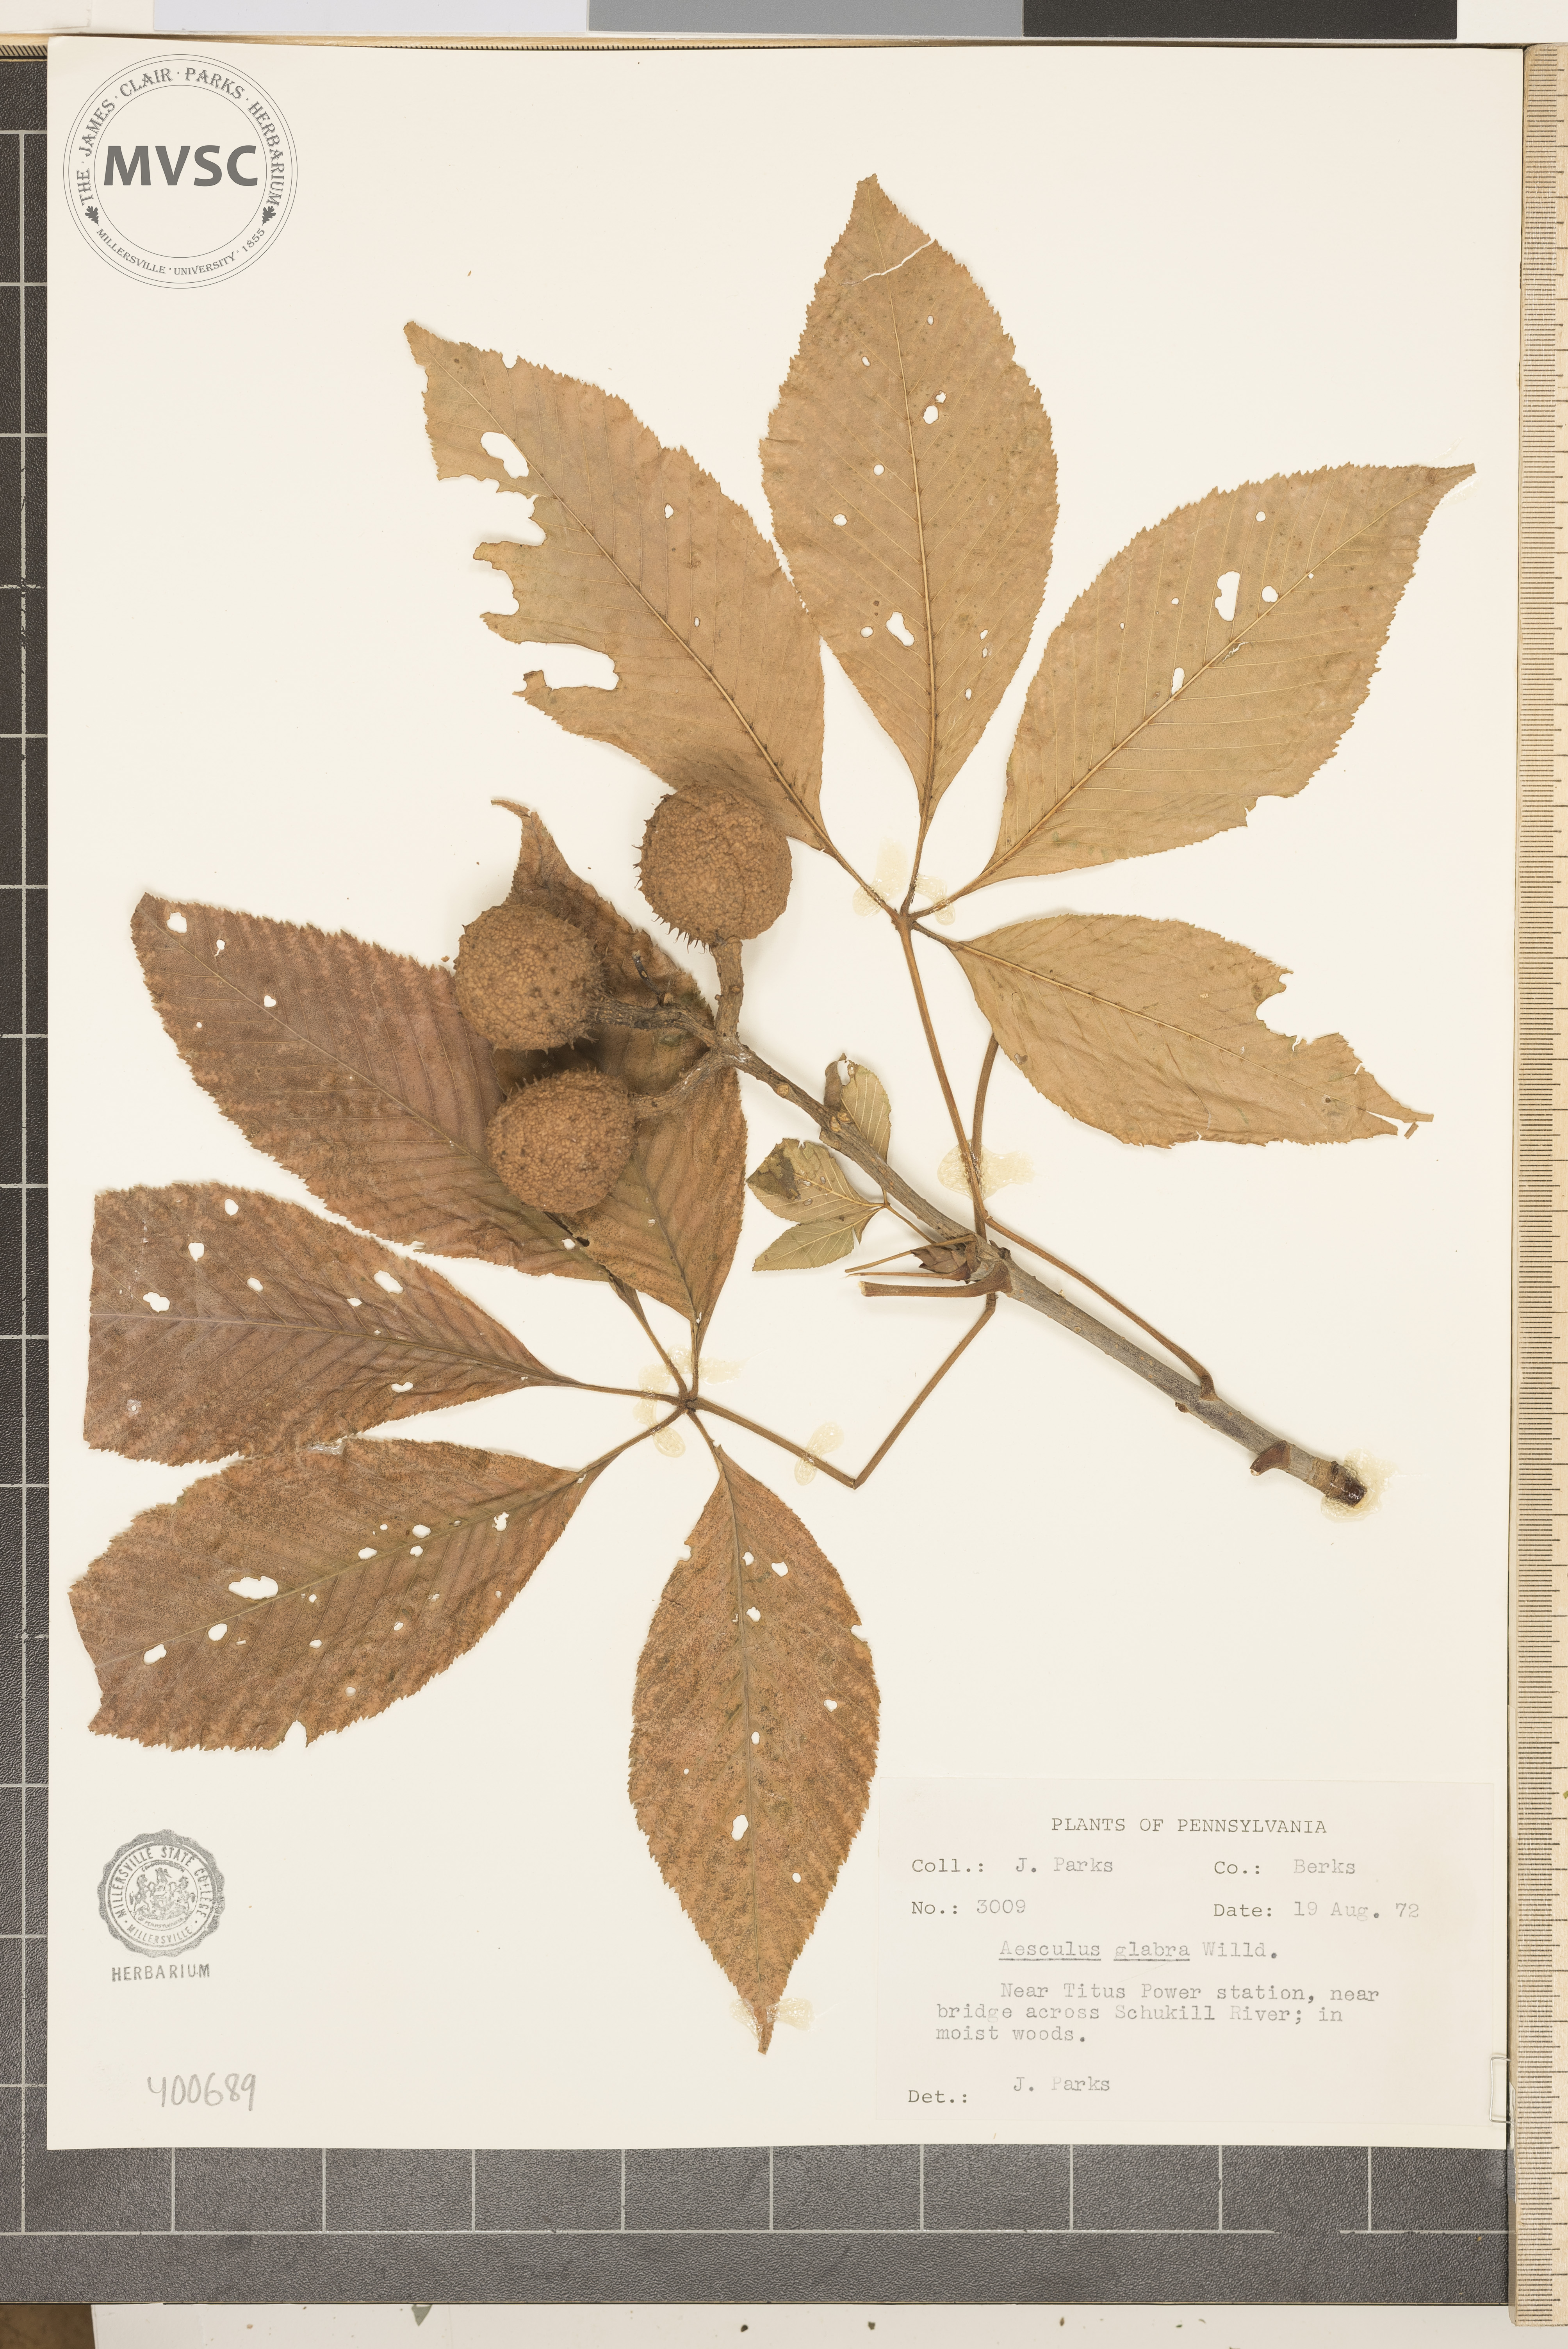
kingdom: Plantae
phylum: Tracheophyta
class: Magnoliopsida
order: Sapindales
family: Sapindaceae
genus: Aesculus
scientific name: Aesculus glabra
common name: buckeye
